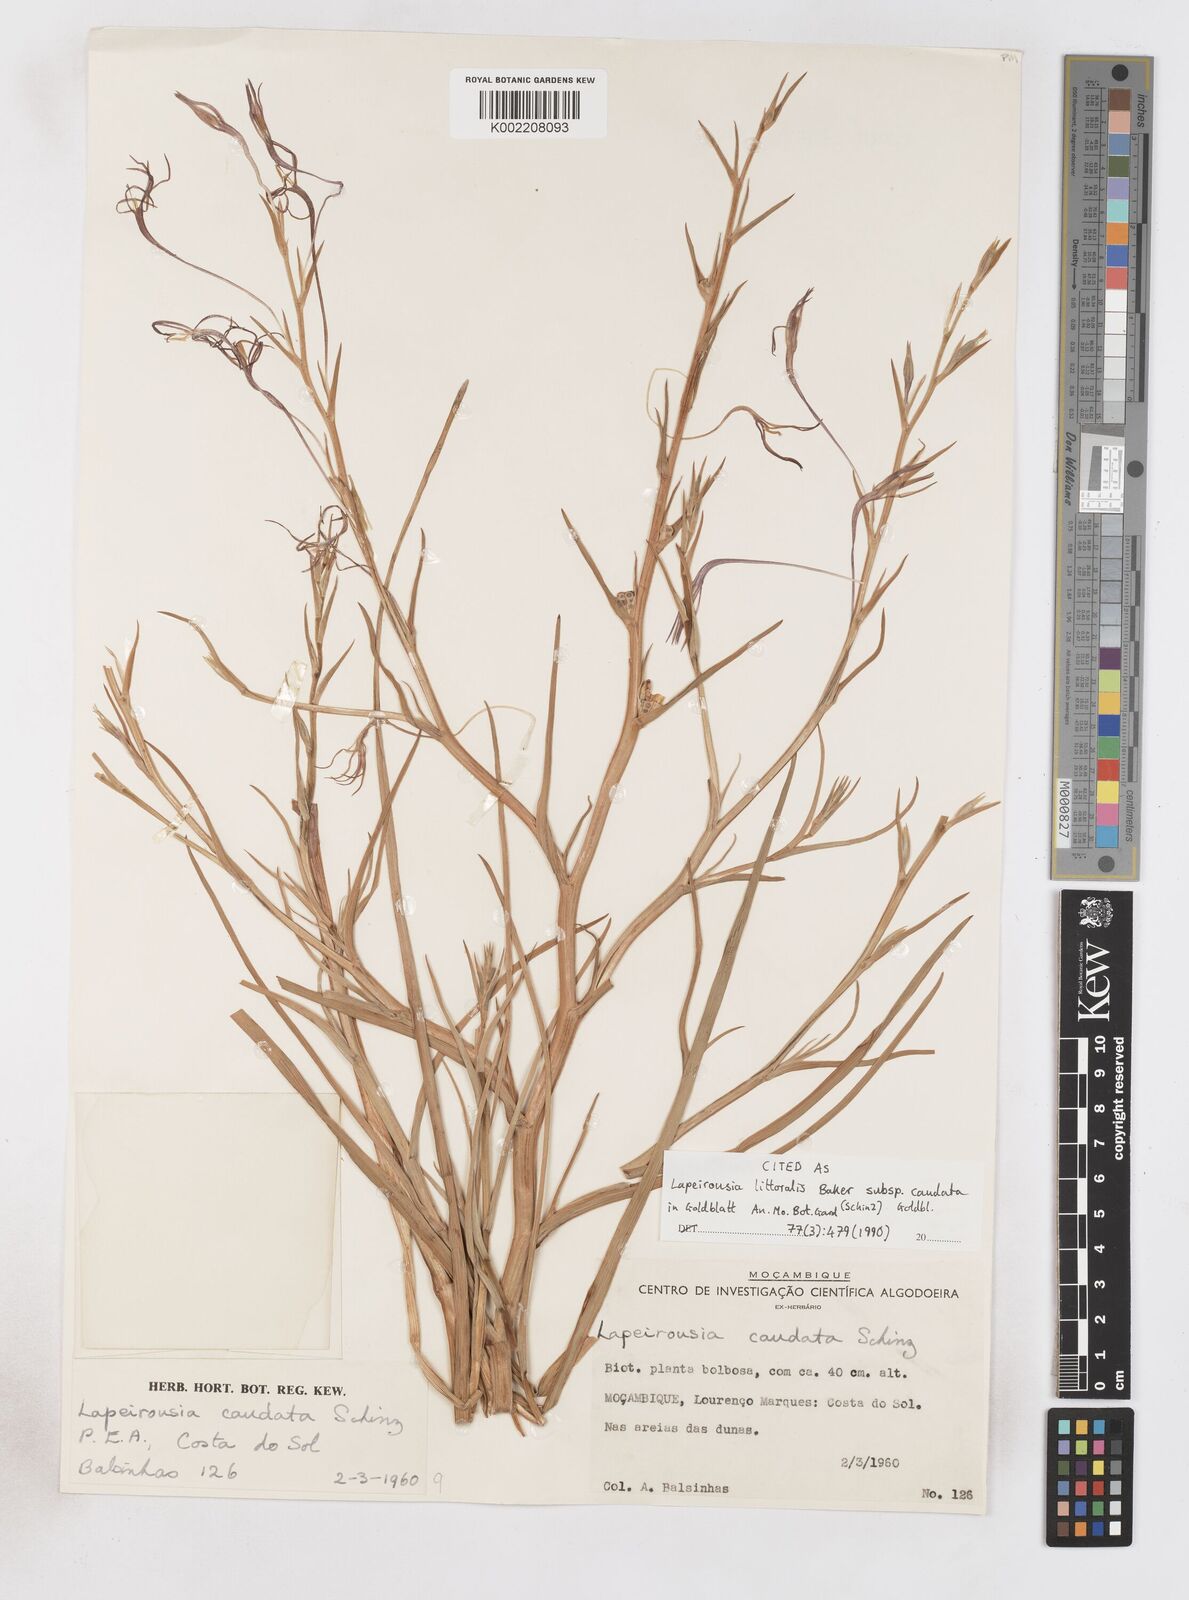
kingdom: Plantae
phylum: Tracheophyta
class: Liliopsida
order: Asparagales
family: Iridaceae
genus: Lapeirousia
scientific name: Lapeirousia caudata
